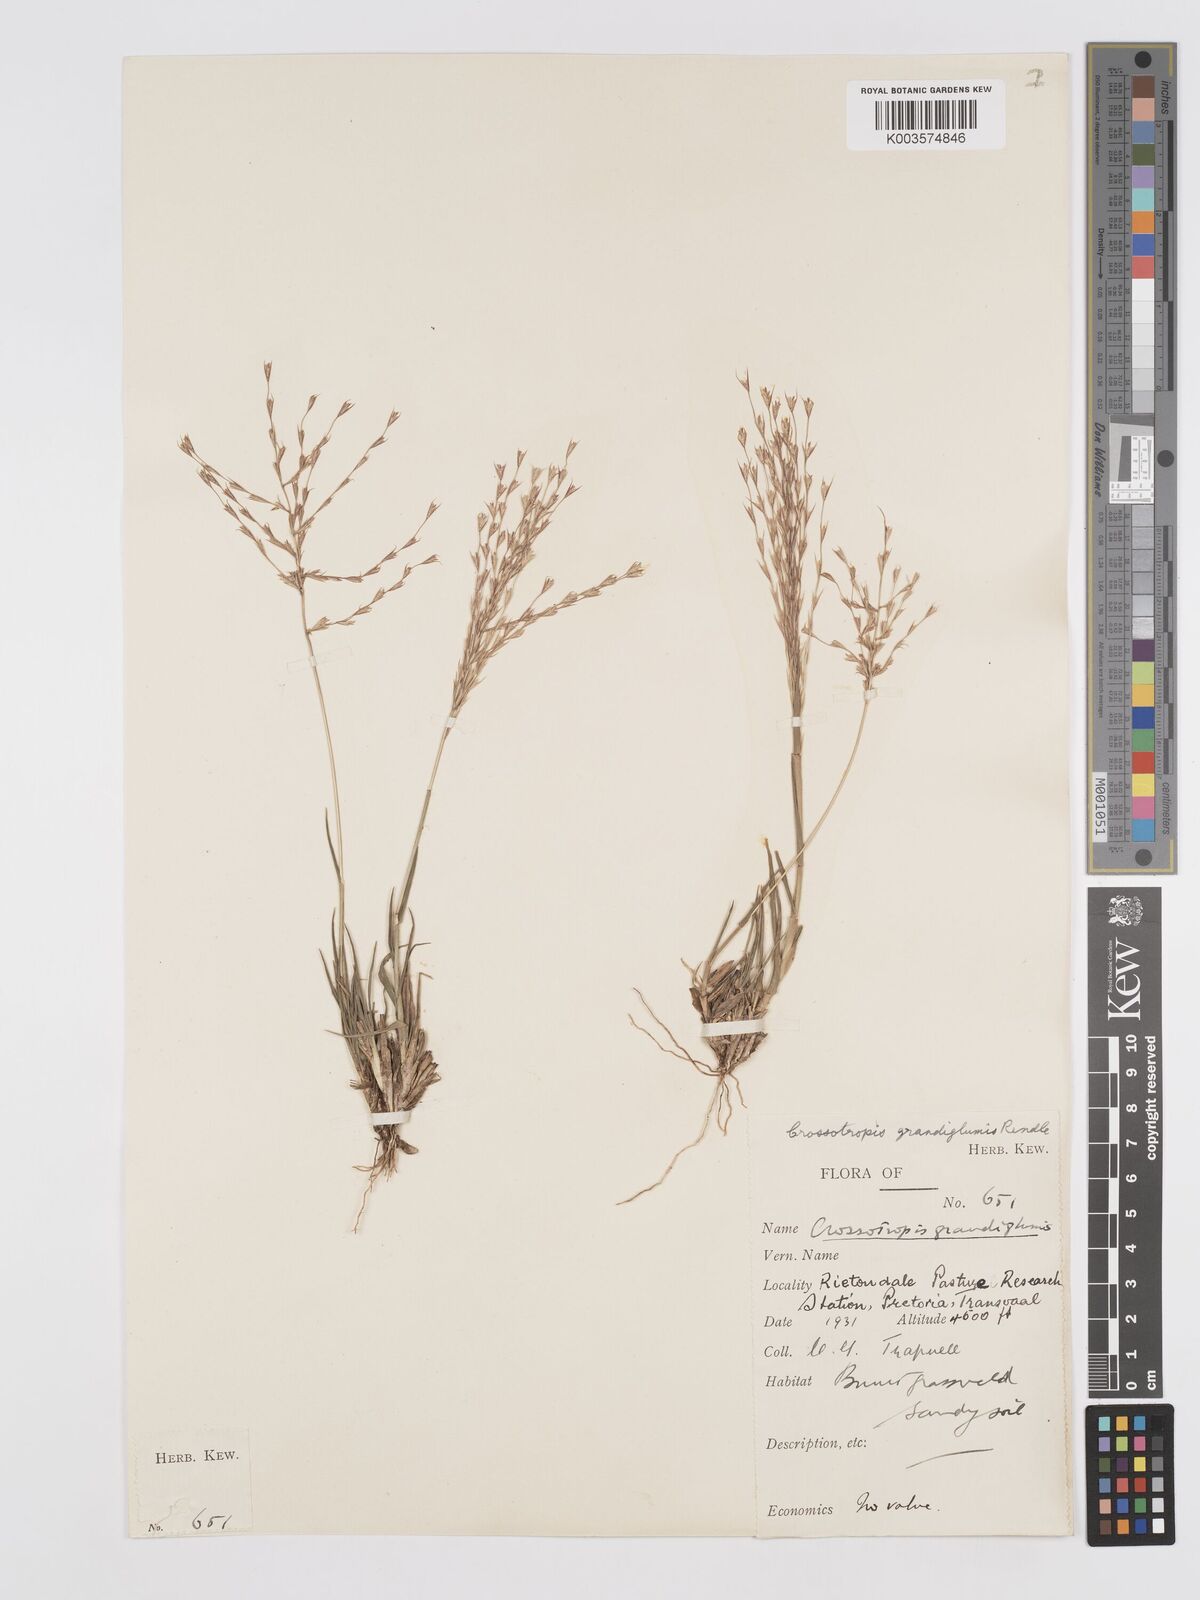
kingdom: Plantae
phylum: Tracheophyta
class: Liliopsida
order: Poales
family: Poaceae
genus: Trichoneura
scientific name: Trichoneura grandiglumis
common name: Rolling grass
